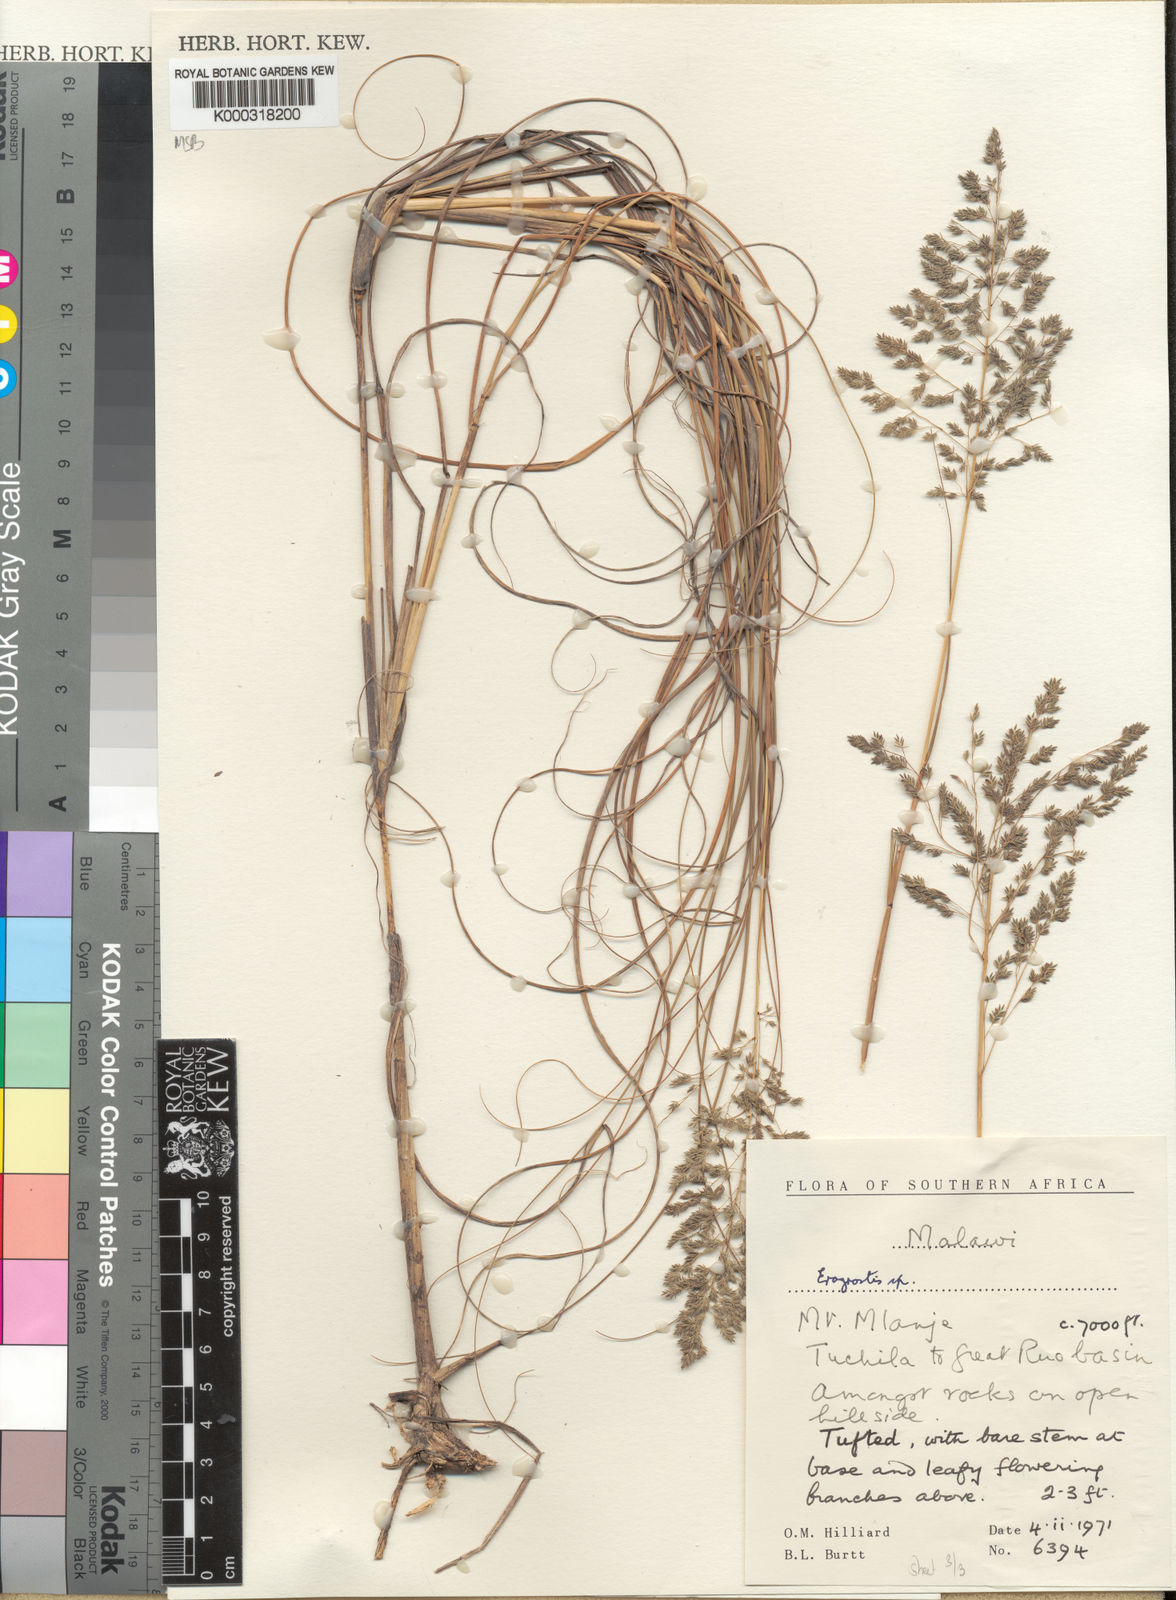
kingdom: Plantae
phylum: Tracheophyta
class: Liliopsida
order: Poales
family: Poaceae
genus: Eragrostis
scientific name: Eragrostis fastigiata
